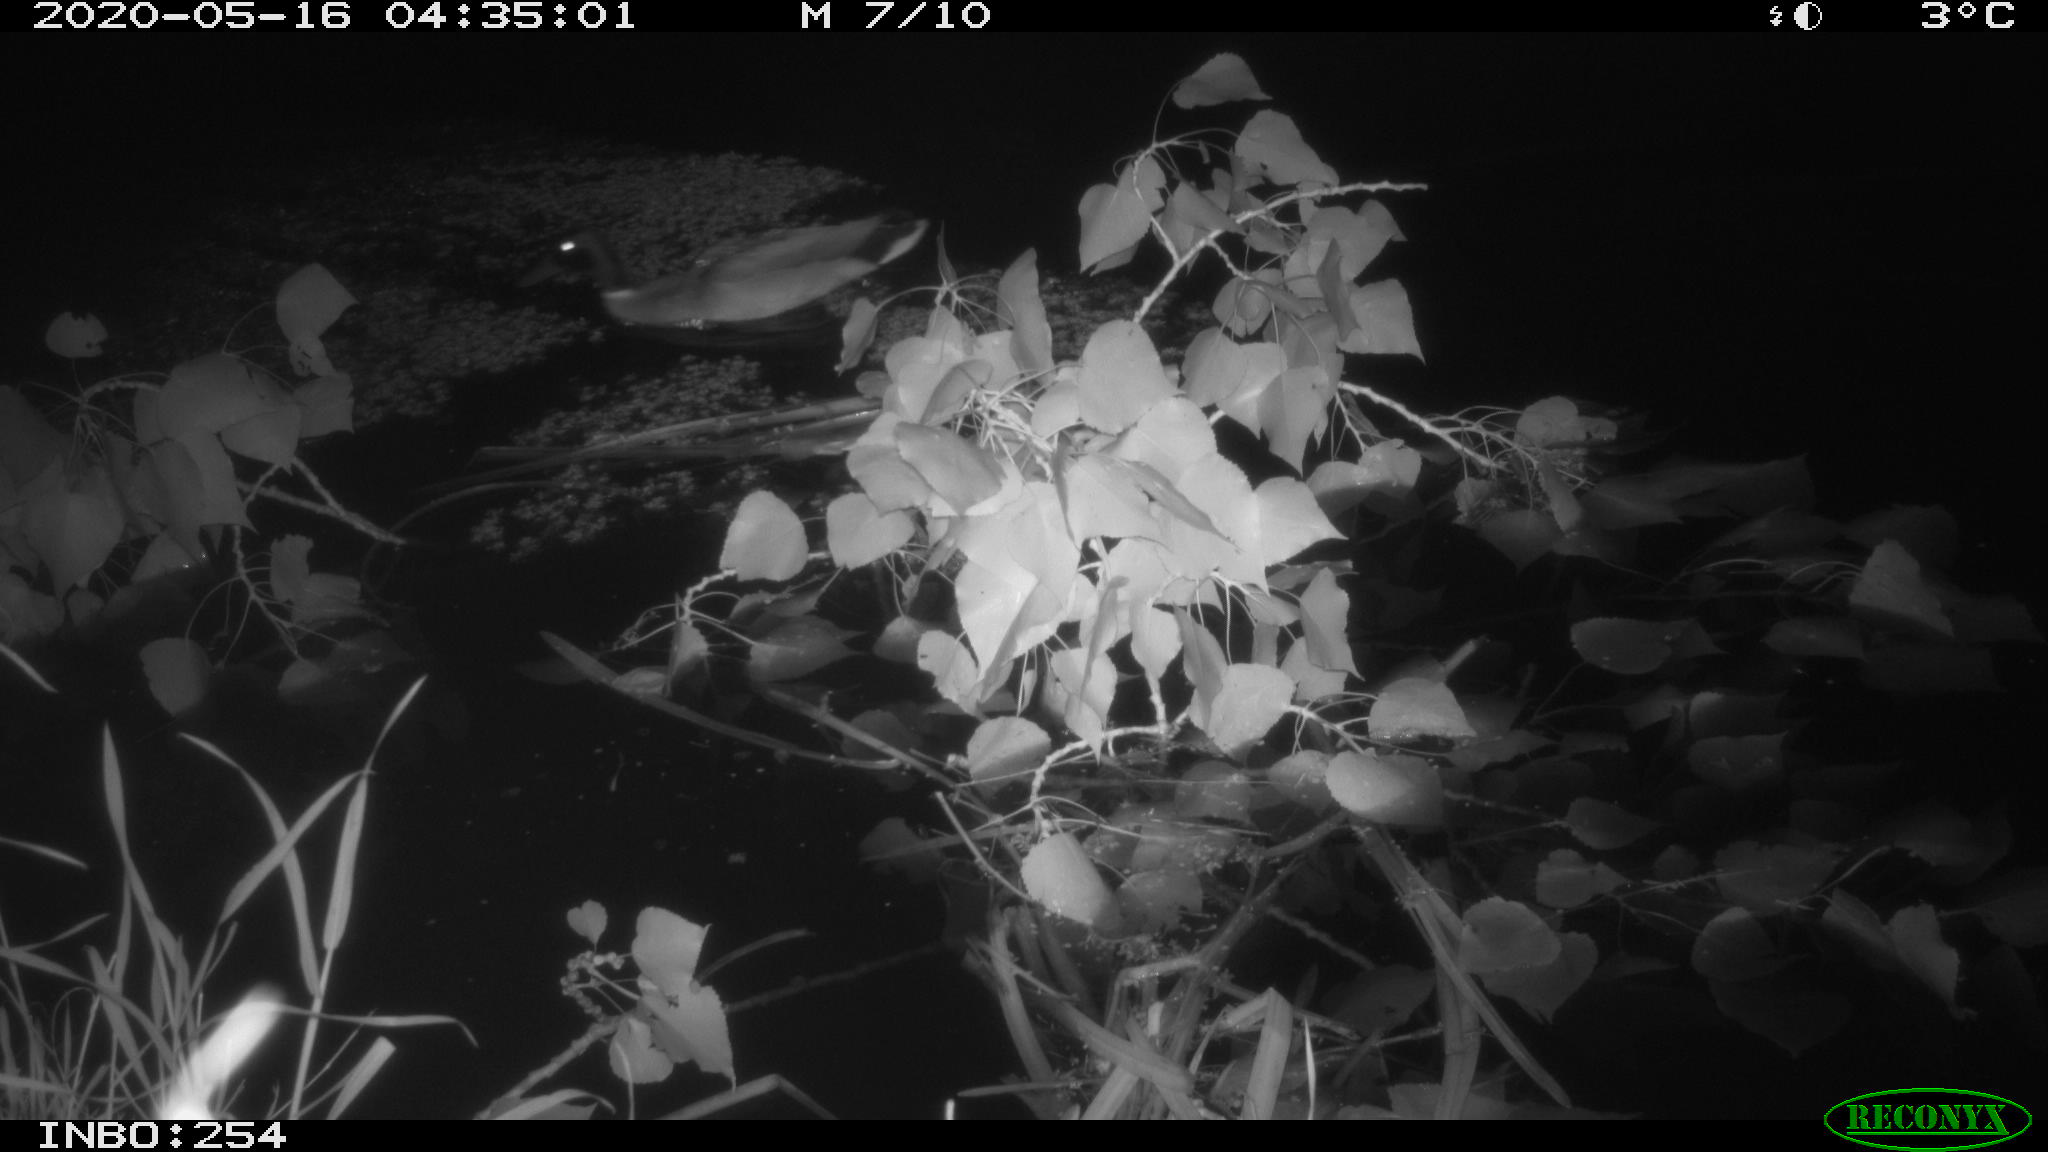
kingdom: Animalia
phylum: Chordata
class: Aves
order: Anseriformes
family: Anatidae
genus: Anas
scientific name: Anas platyrhynchos
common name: Mallard
